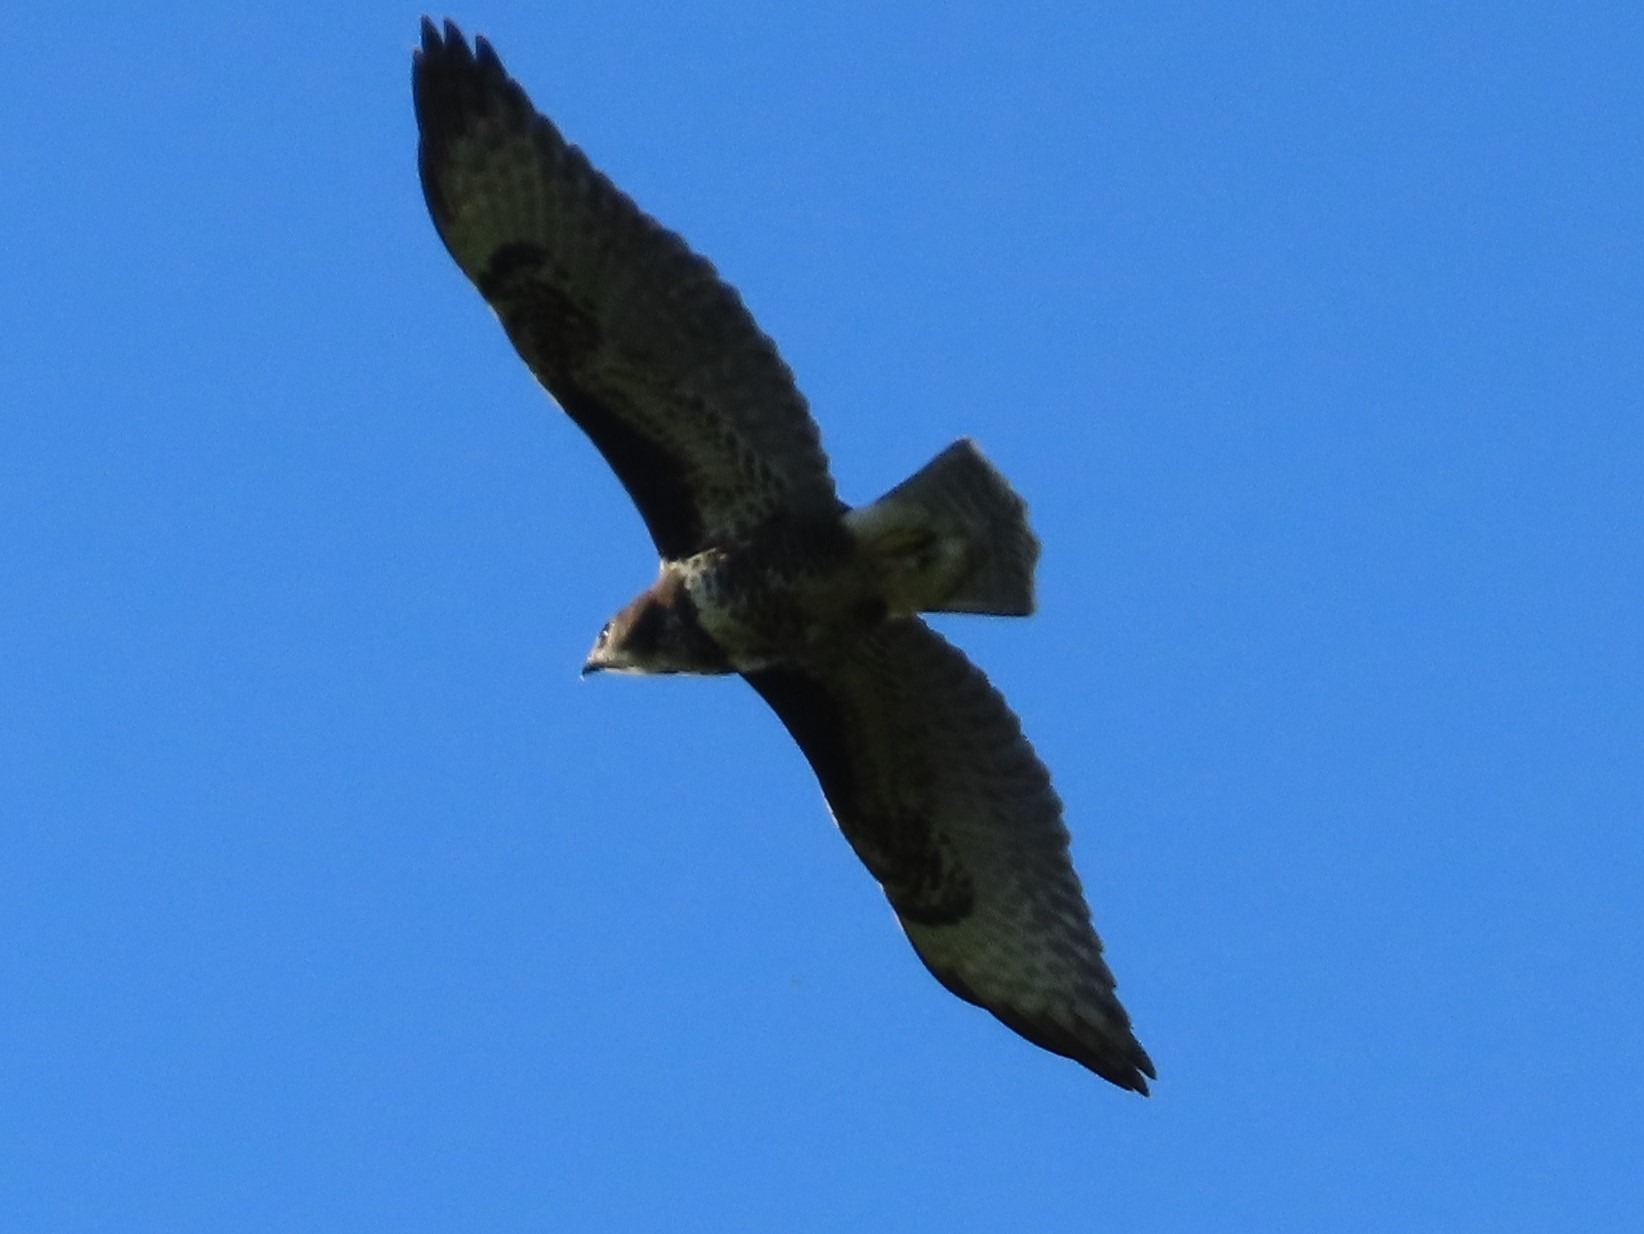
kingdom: Animalia
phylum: Chordata
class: Aves
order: Accipitriformes
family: Accipitridae
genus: Buteo
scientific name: Buteo buteo
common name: Musvåge
